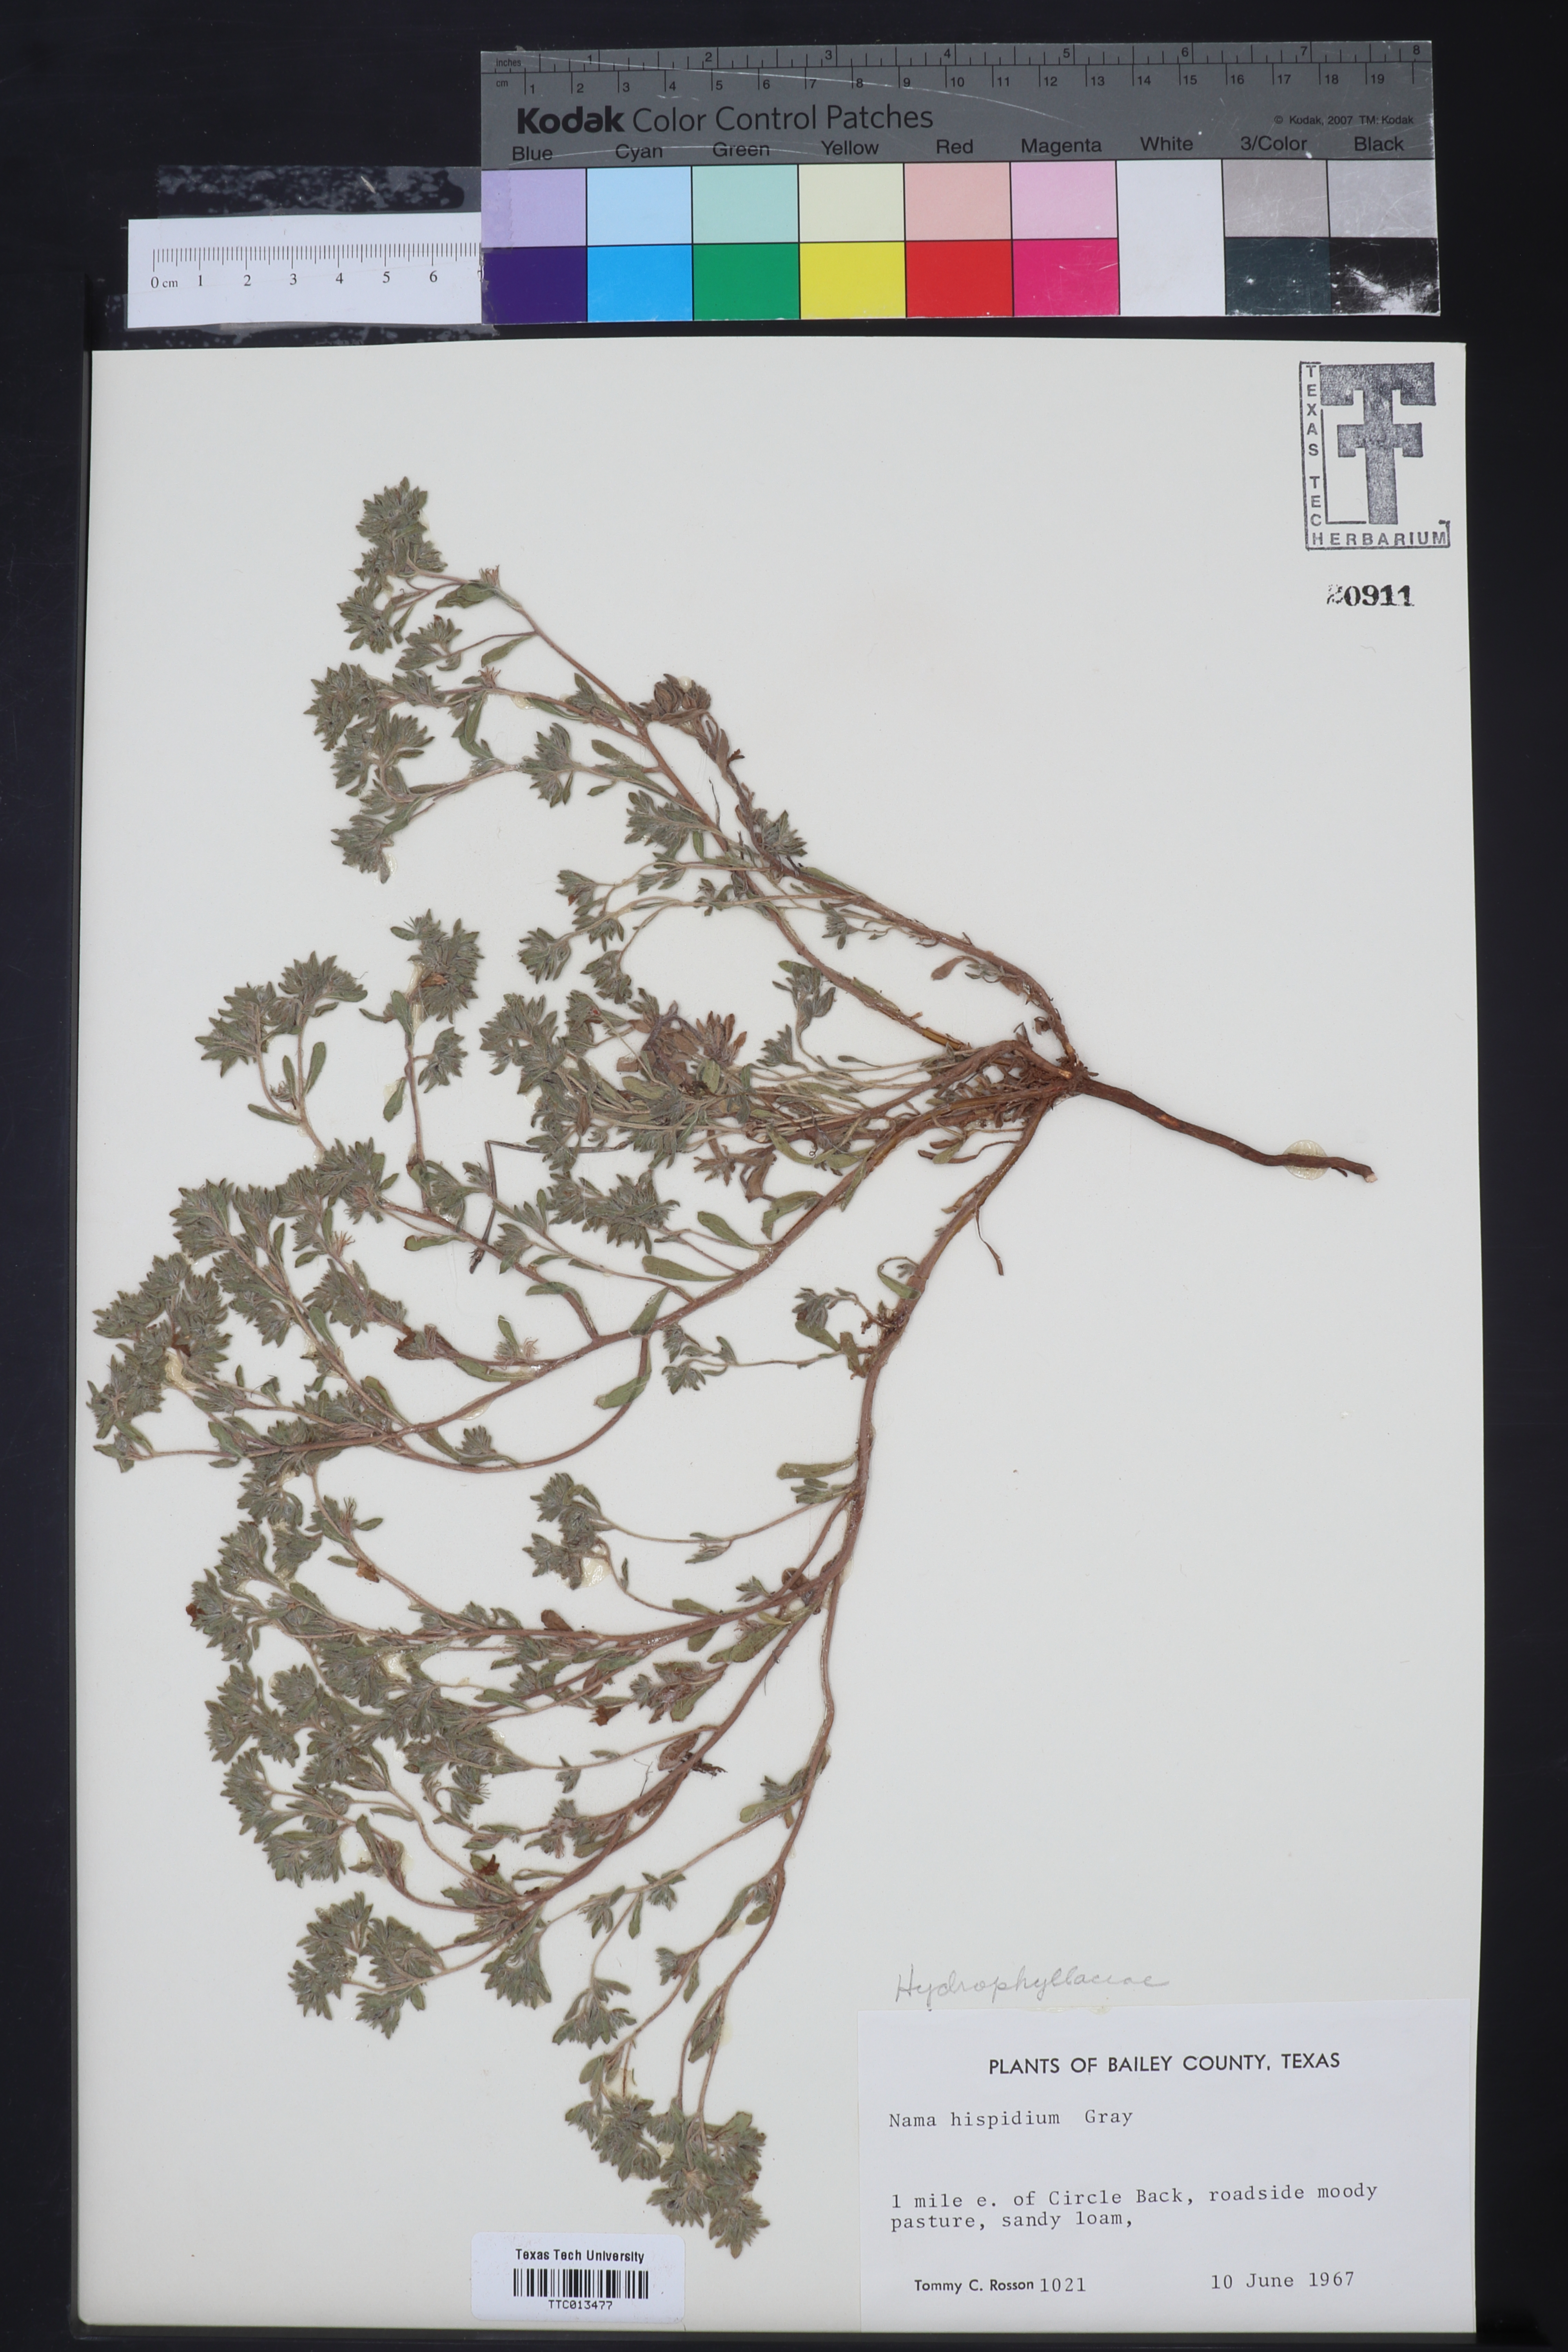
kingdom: Plantae
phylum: Tracheophyta
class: Magnoliopsida
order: Boraginales
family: Namaceae
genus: Nama
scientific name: Nama hispida
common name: Bristly nama
